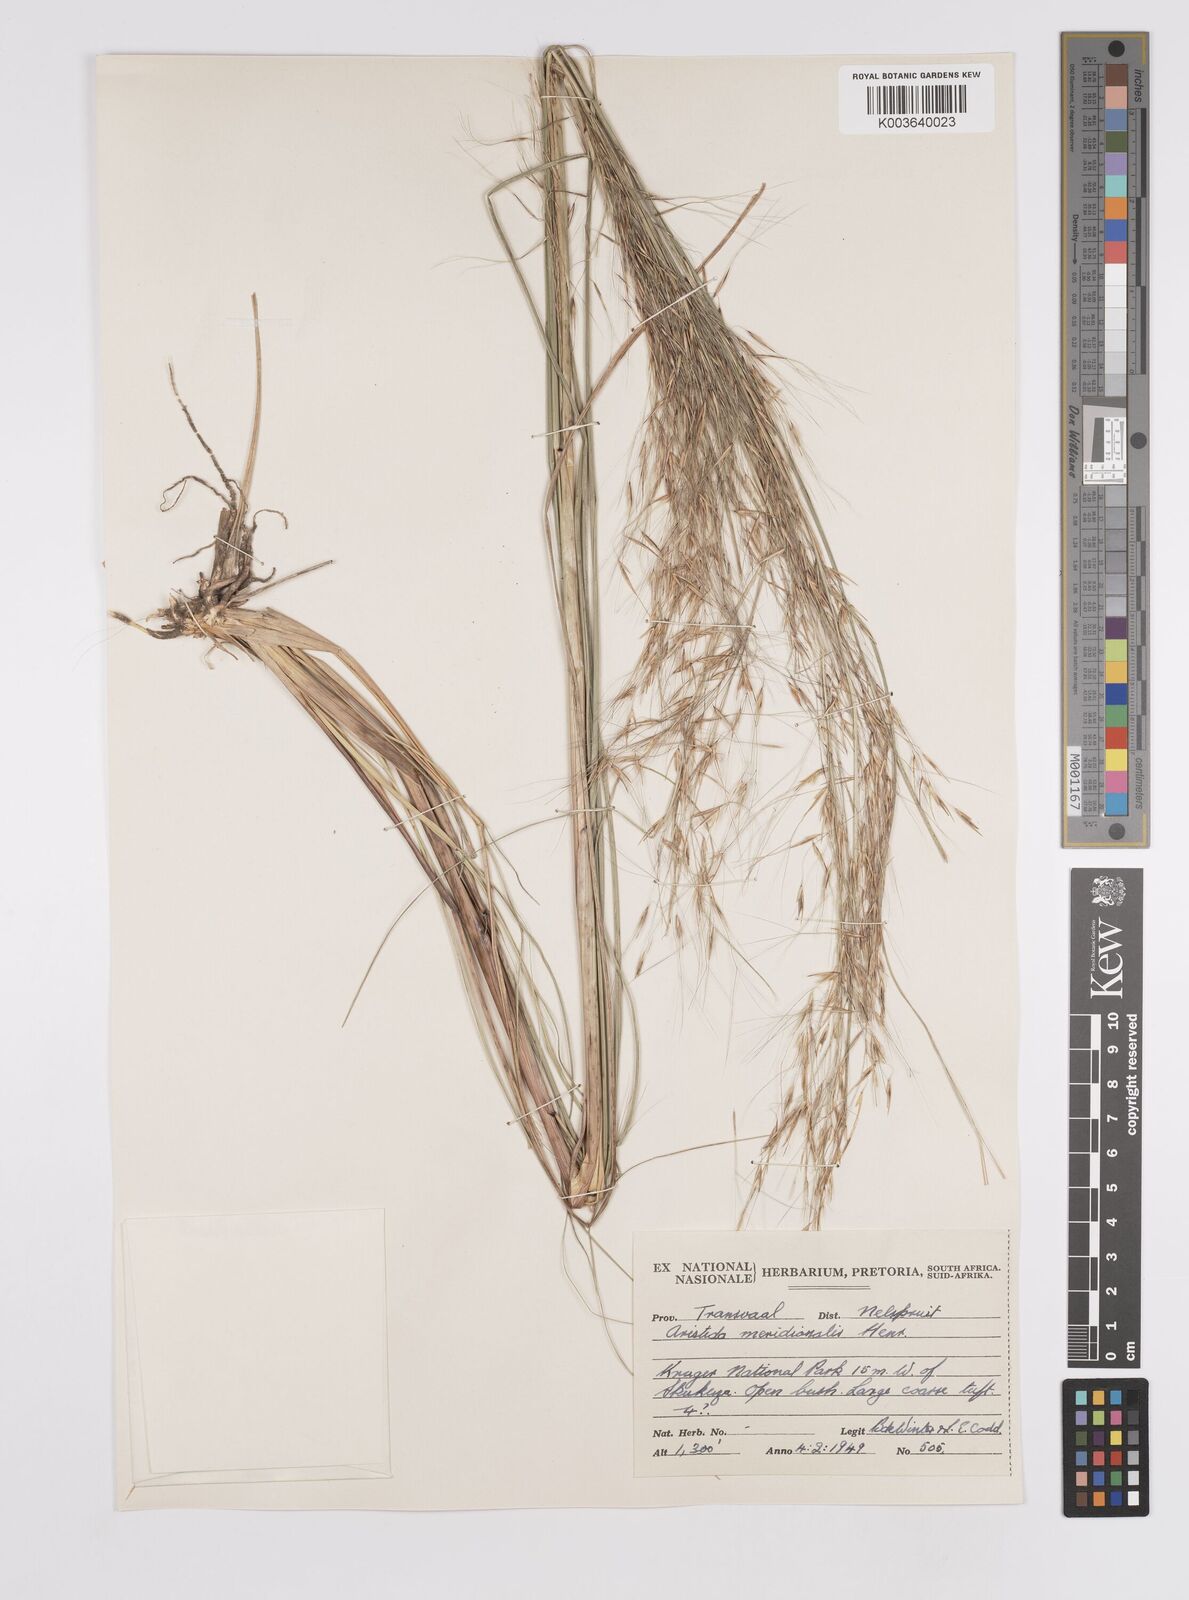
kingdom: Plantae
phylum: Tracheophyta
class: Liliopsida
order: Poales
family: Poaceae
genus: Aristida
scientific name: Aristida meridionalis
